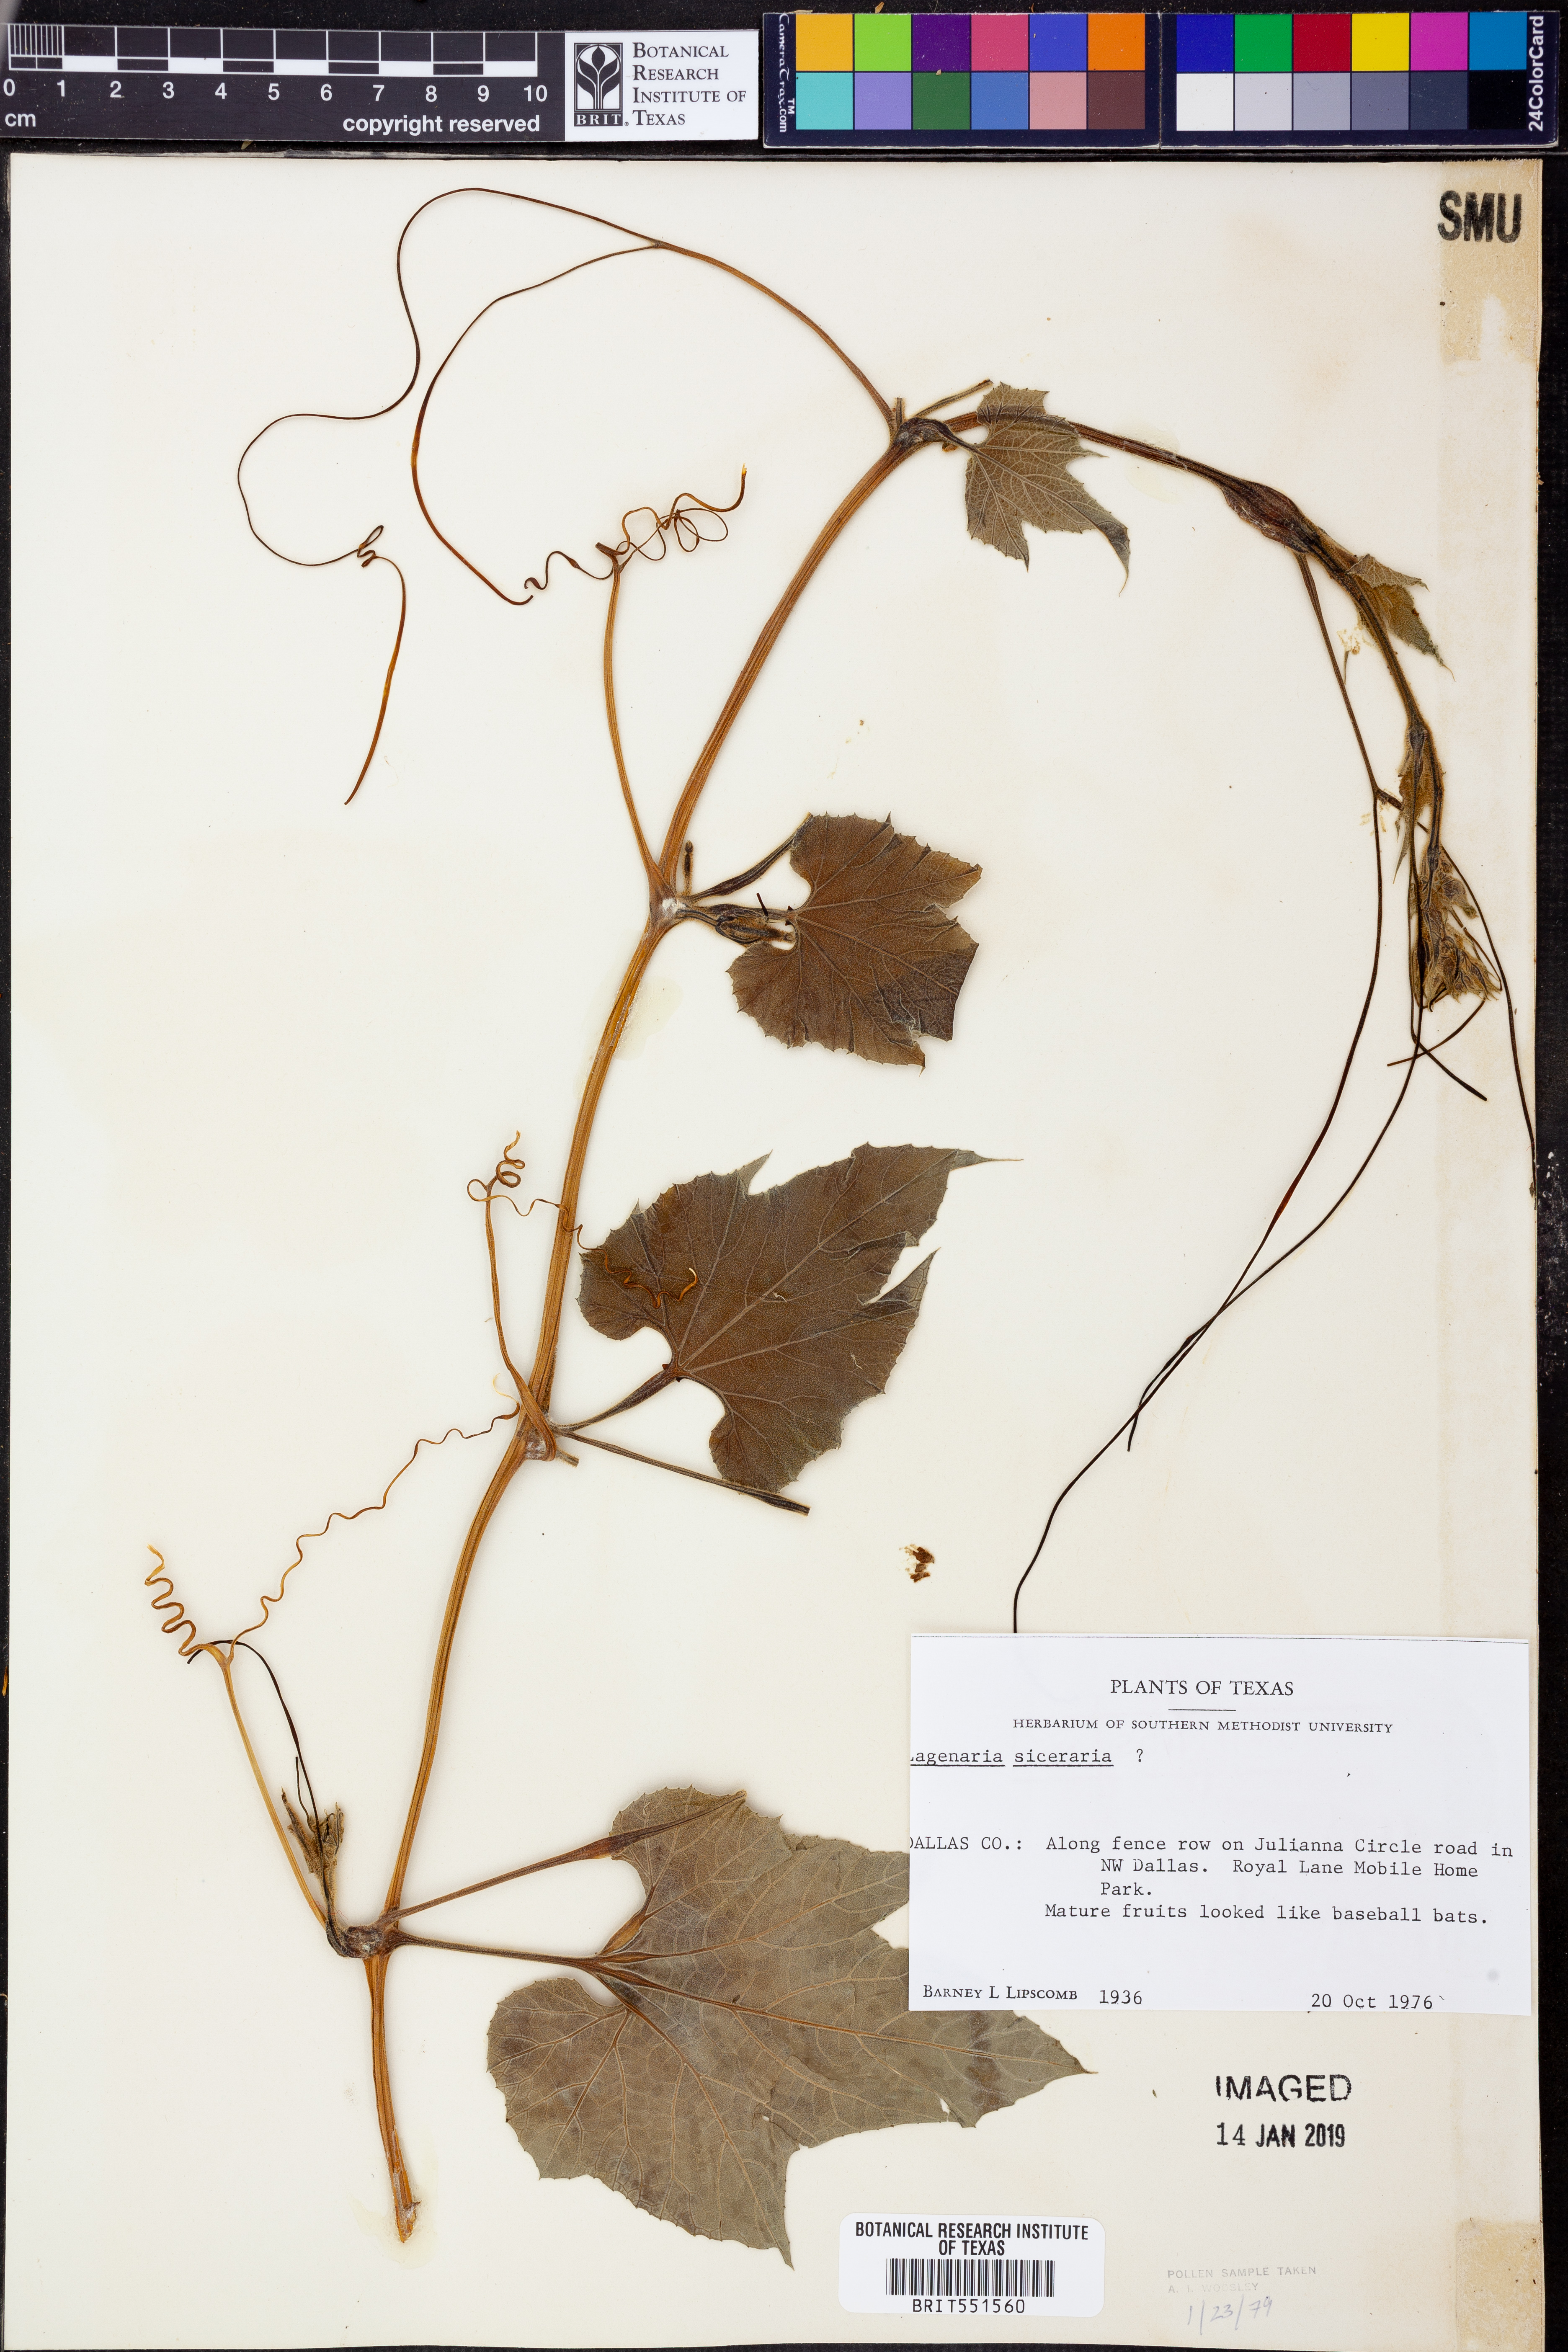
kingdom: Plantae
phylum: Tracheophyta
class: Magnoliopsida
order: Cucurbitales
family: Cucurbitaceae
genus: Lagenaria
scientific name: Lagenaria siceraria
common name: Bottle gourd
